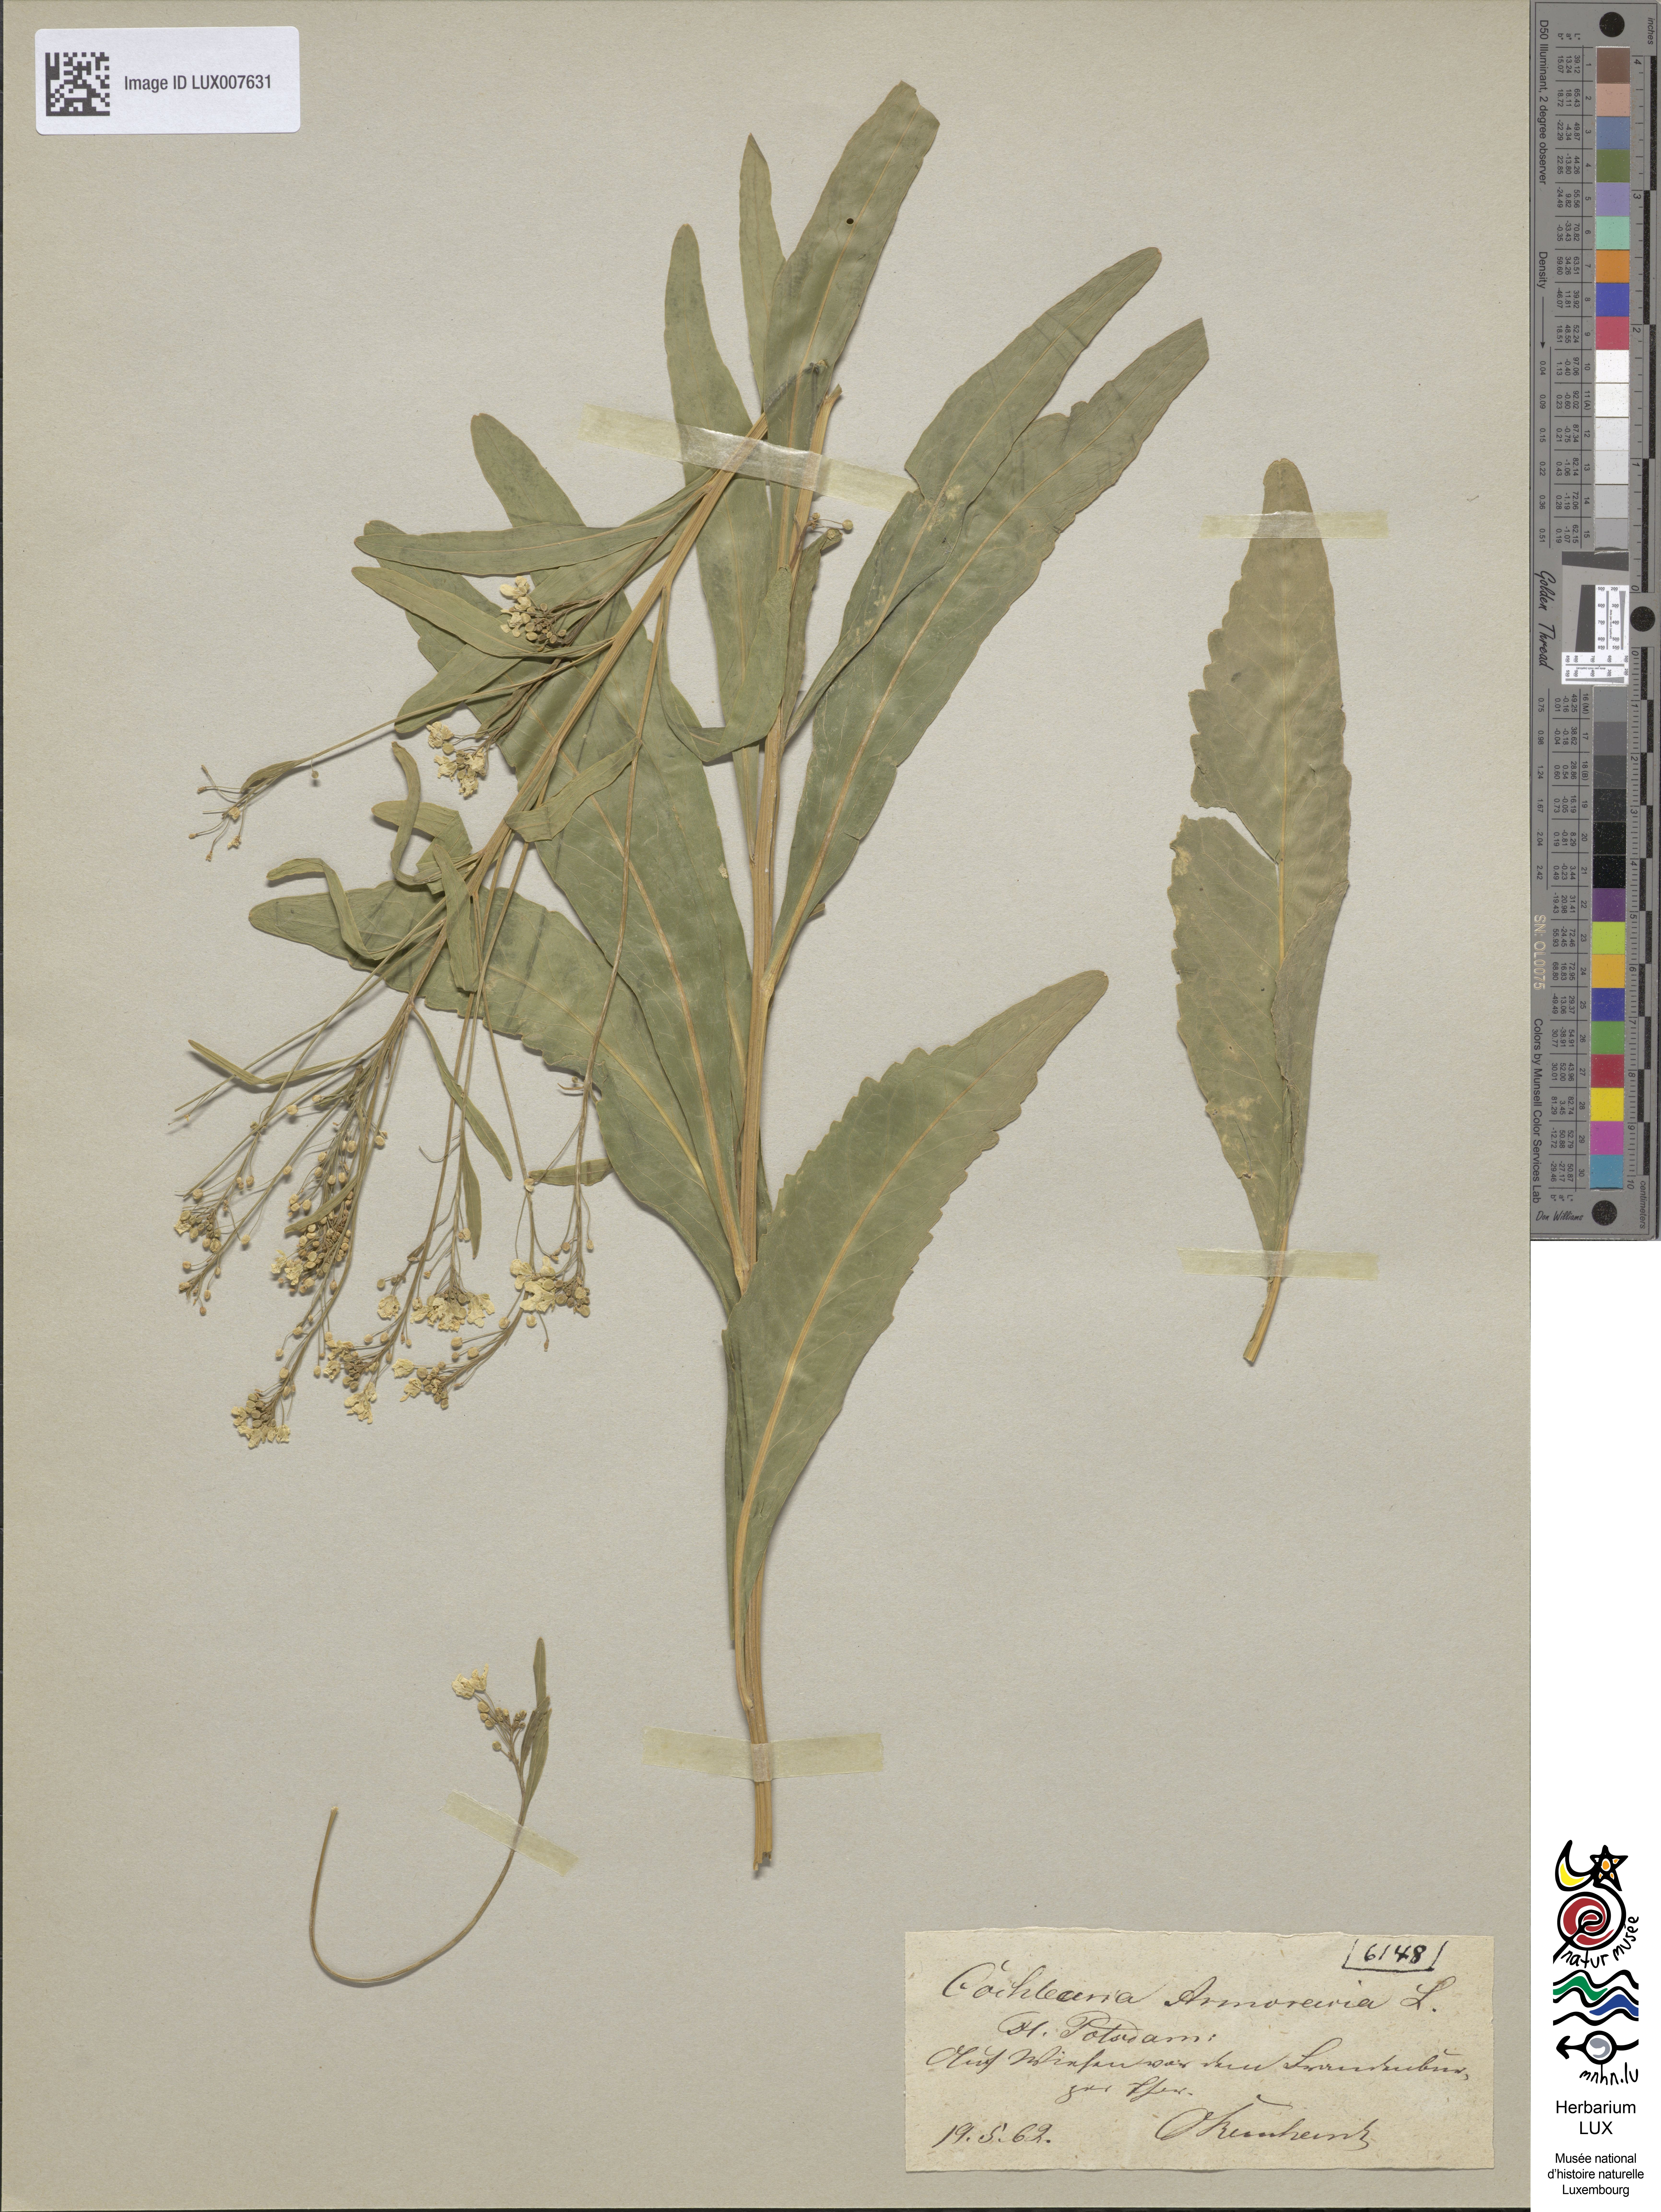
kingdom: Plantae
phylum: Tracheophyta
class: Magnoliopsida
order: Brassicales
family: Brassicaceae
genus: Armoracia
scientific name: Armoracia rusticana
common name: Horseradish
